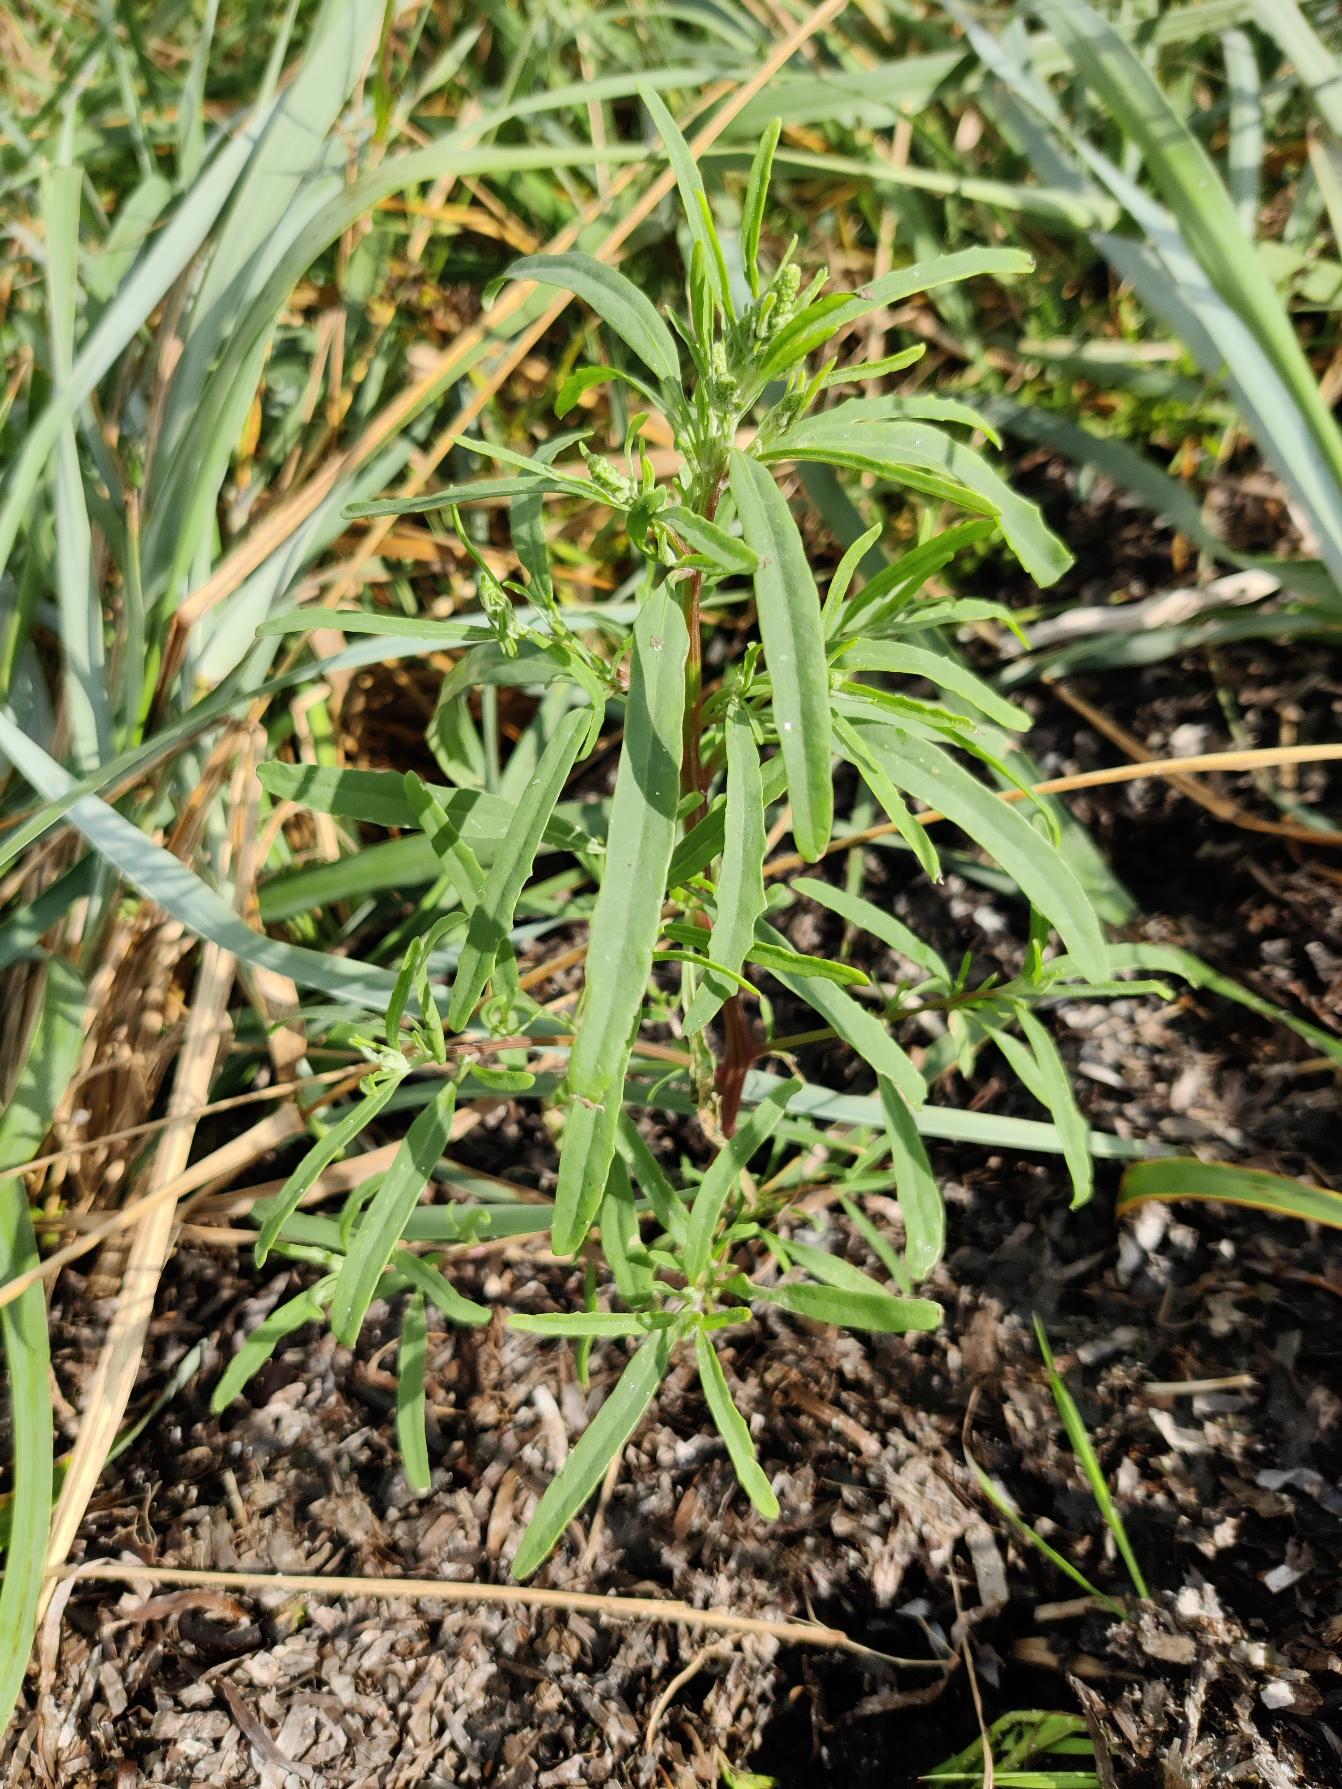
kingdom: Plantae
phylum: Tracheophyta
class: Magnoliopsida
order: Caryophyllales
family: Amaranthaceae
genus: Atriplex
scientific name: Atriplex littoralis
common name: Strand-mælde
